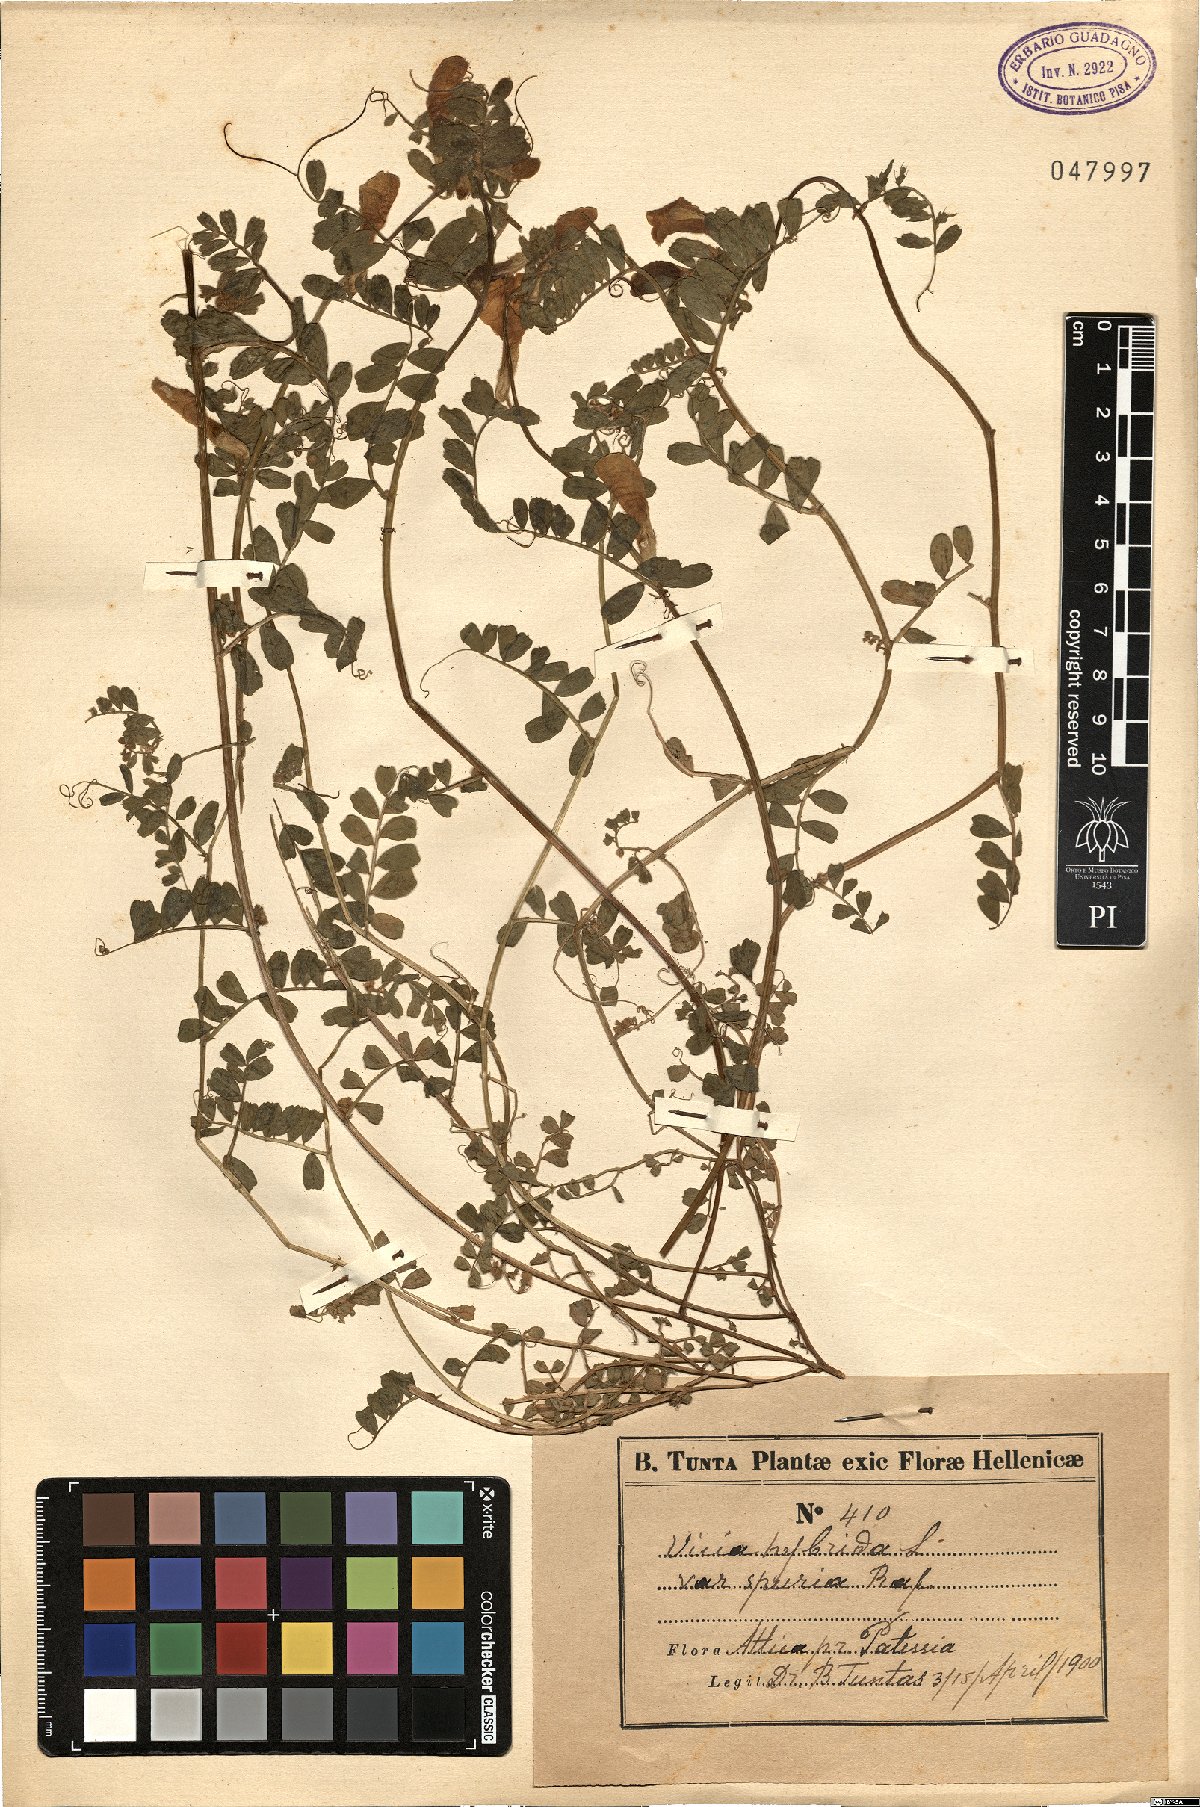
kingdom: Plantae
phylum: Tracheophyta
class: Magnoliopsida
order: Fabales
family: Fabaceae
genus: Vicia
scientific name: Vicia hybrida
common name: Hairy yellow vetch
